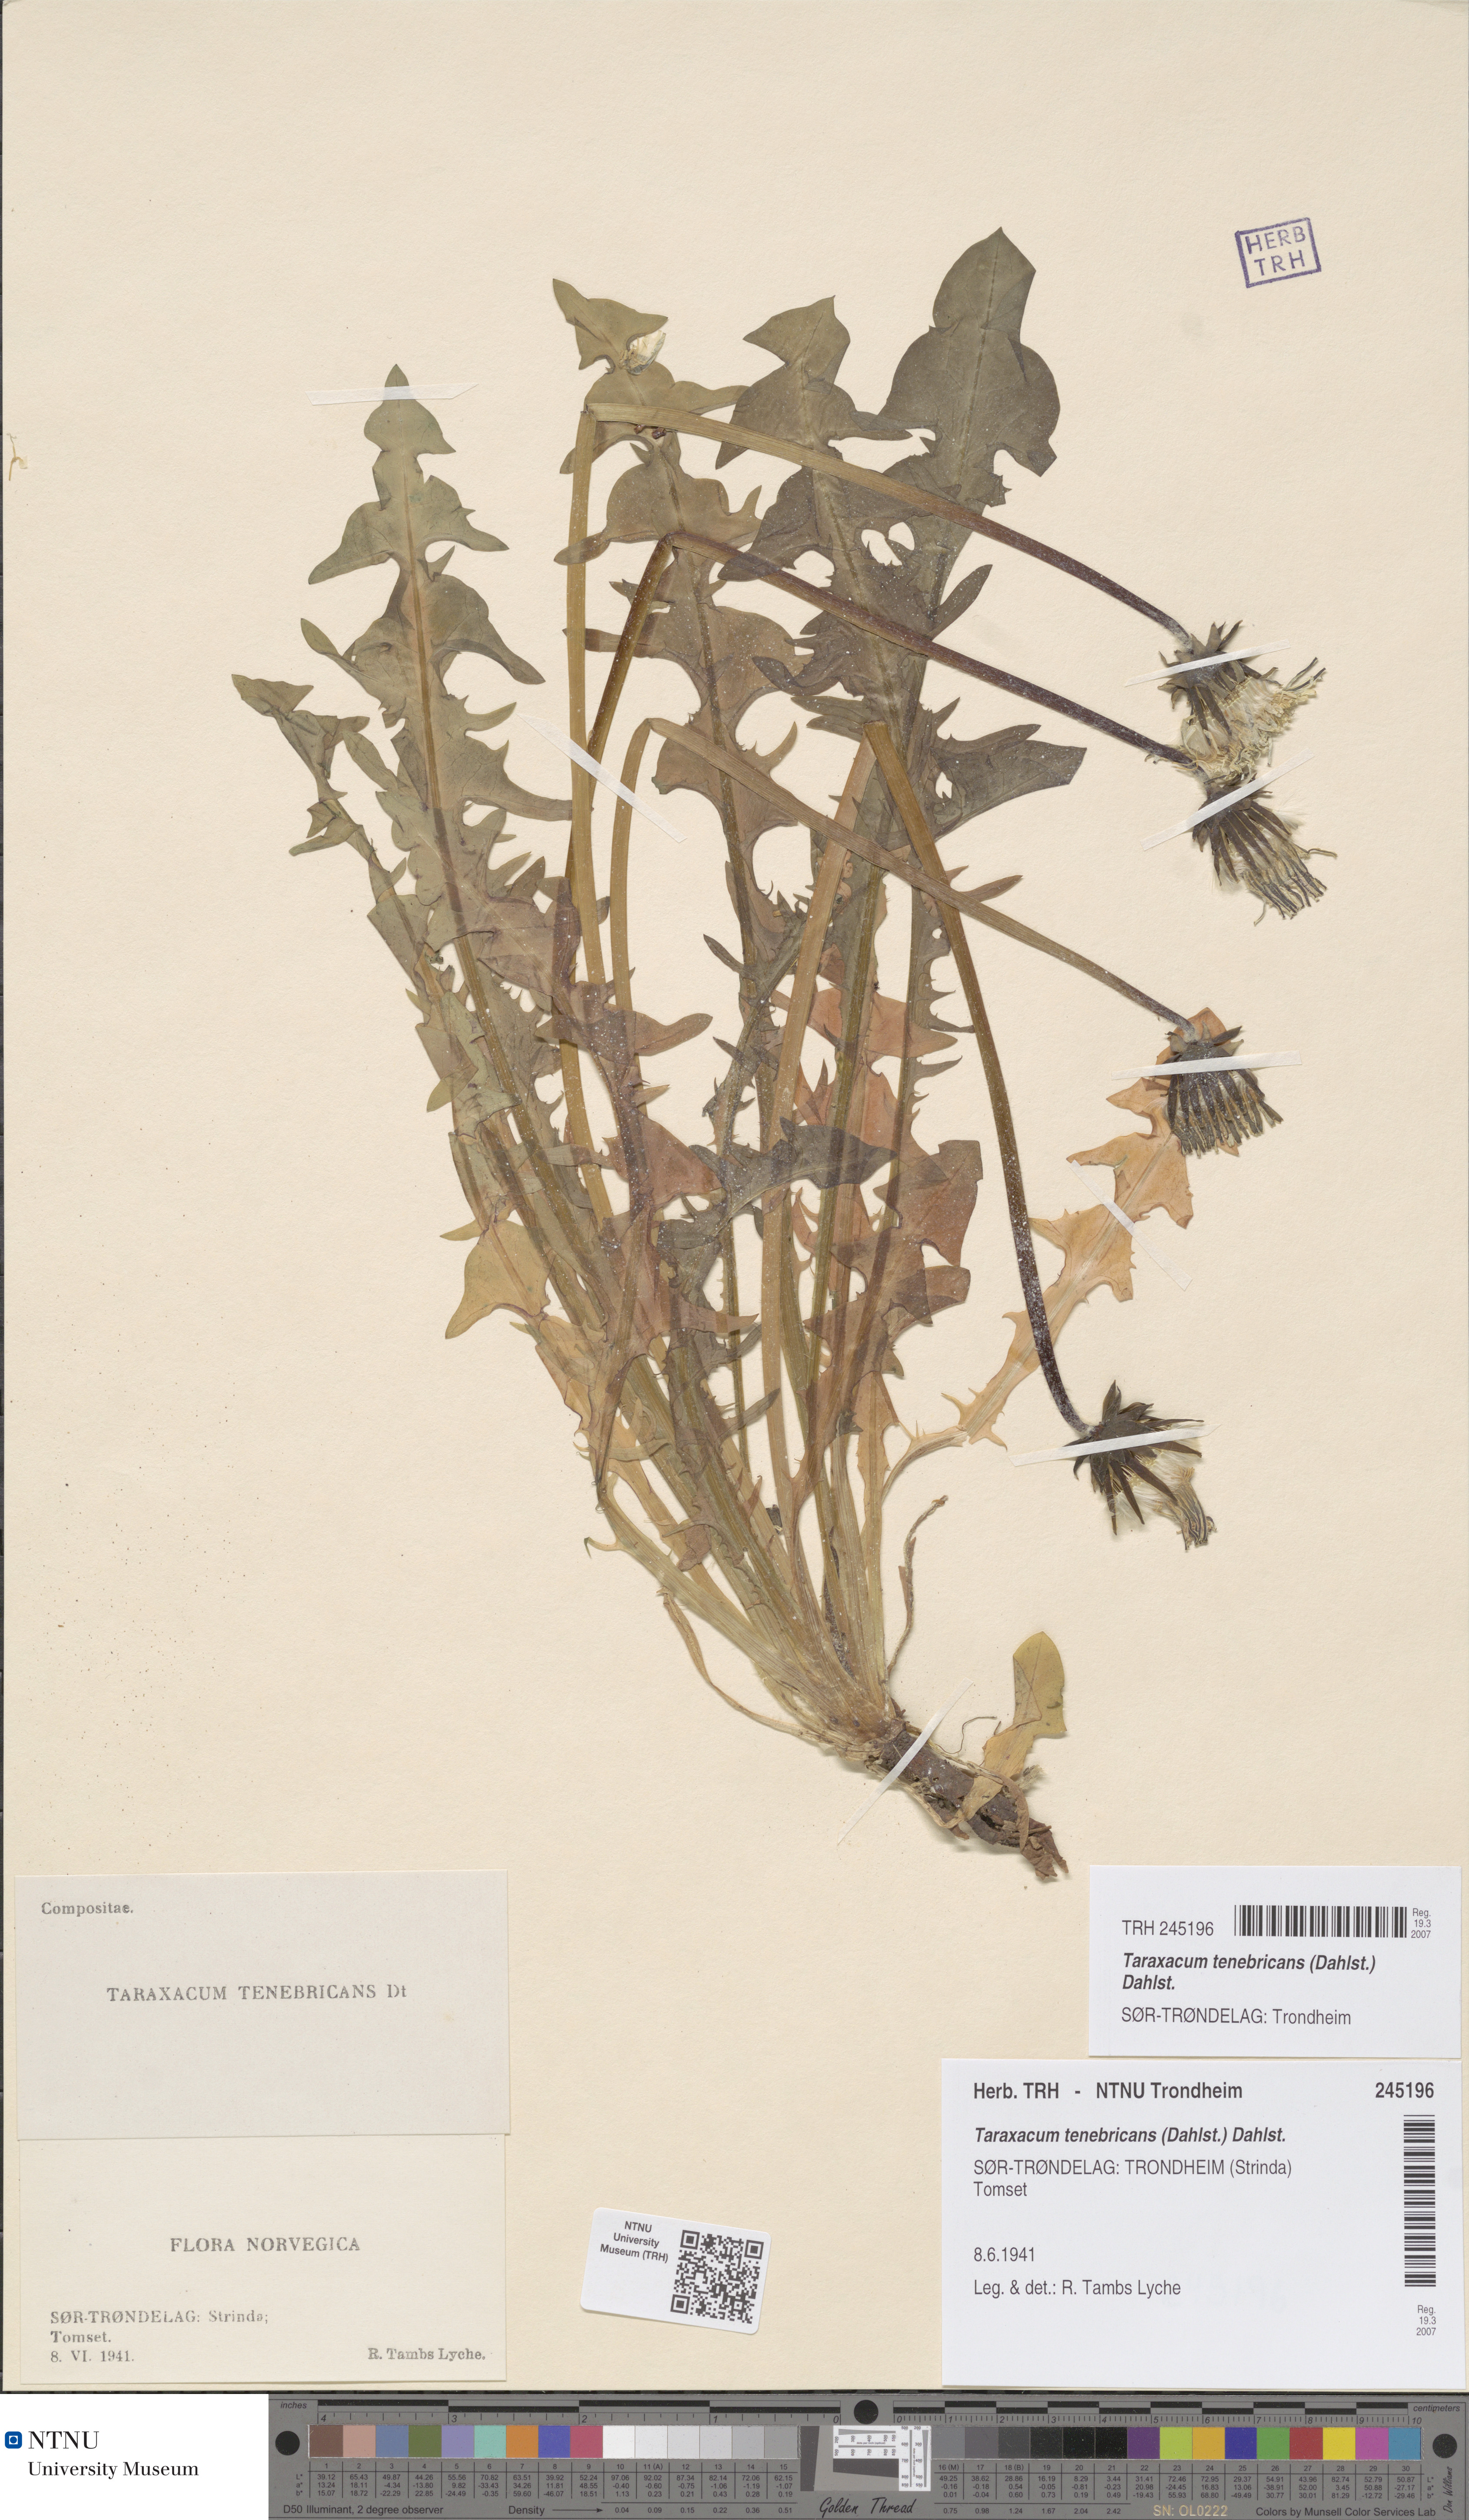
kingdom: Plantae
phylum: Tracheophyta
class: Magnoliopsida
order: Asterales
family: Asteraceae
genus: Taraxacum
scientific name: Taraxacum tenebricans
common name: Shiny-leaved dandelion
